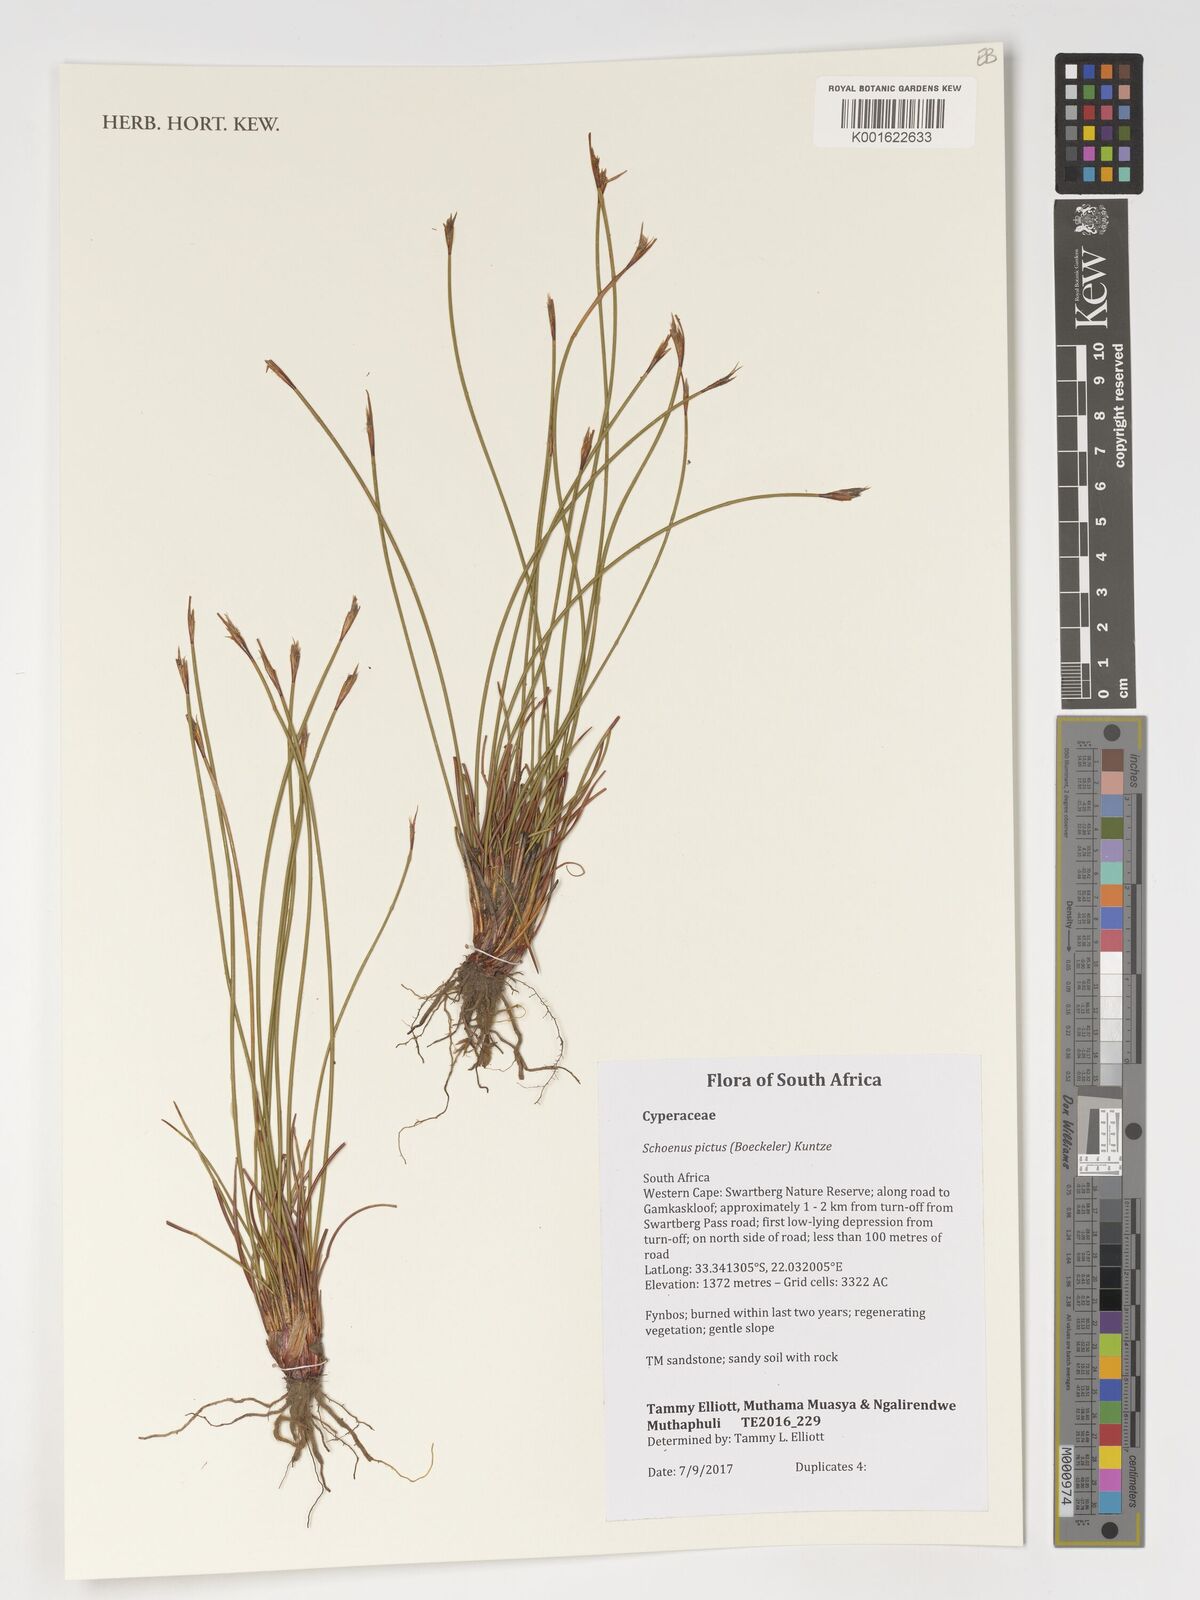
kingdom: Plantae
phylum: Tracheophyta
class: Liliopsida
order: Poales
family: Cyperaceae
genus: Schoenus
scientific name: Schoenus pictus
